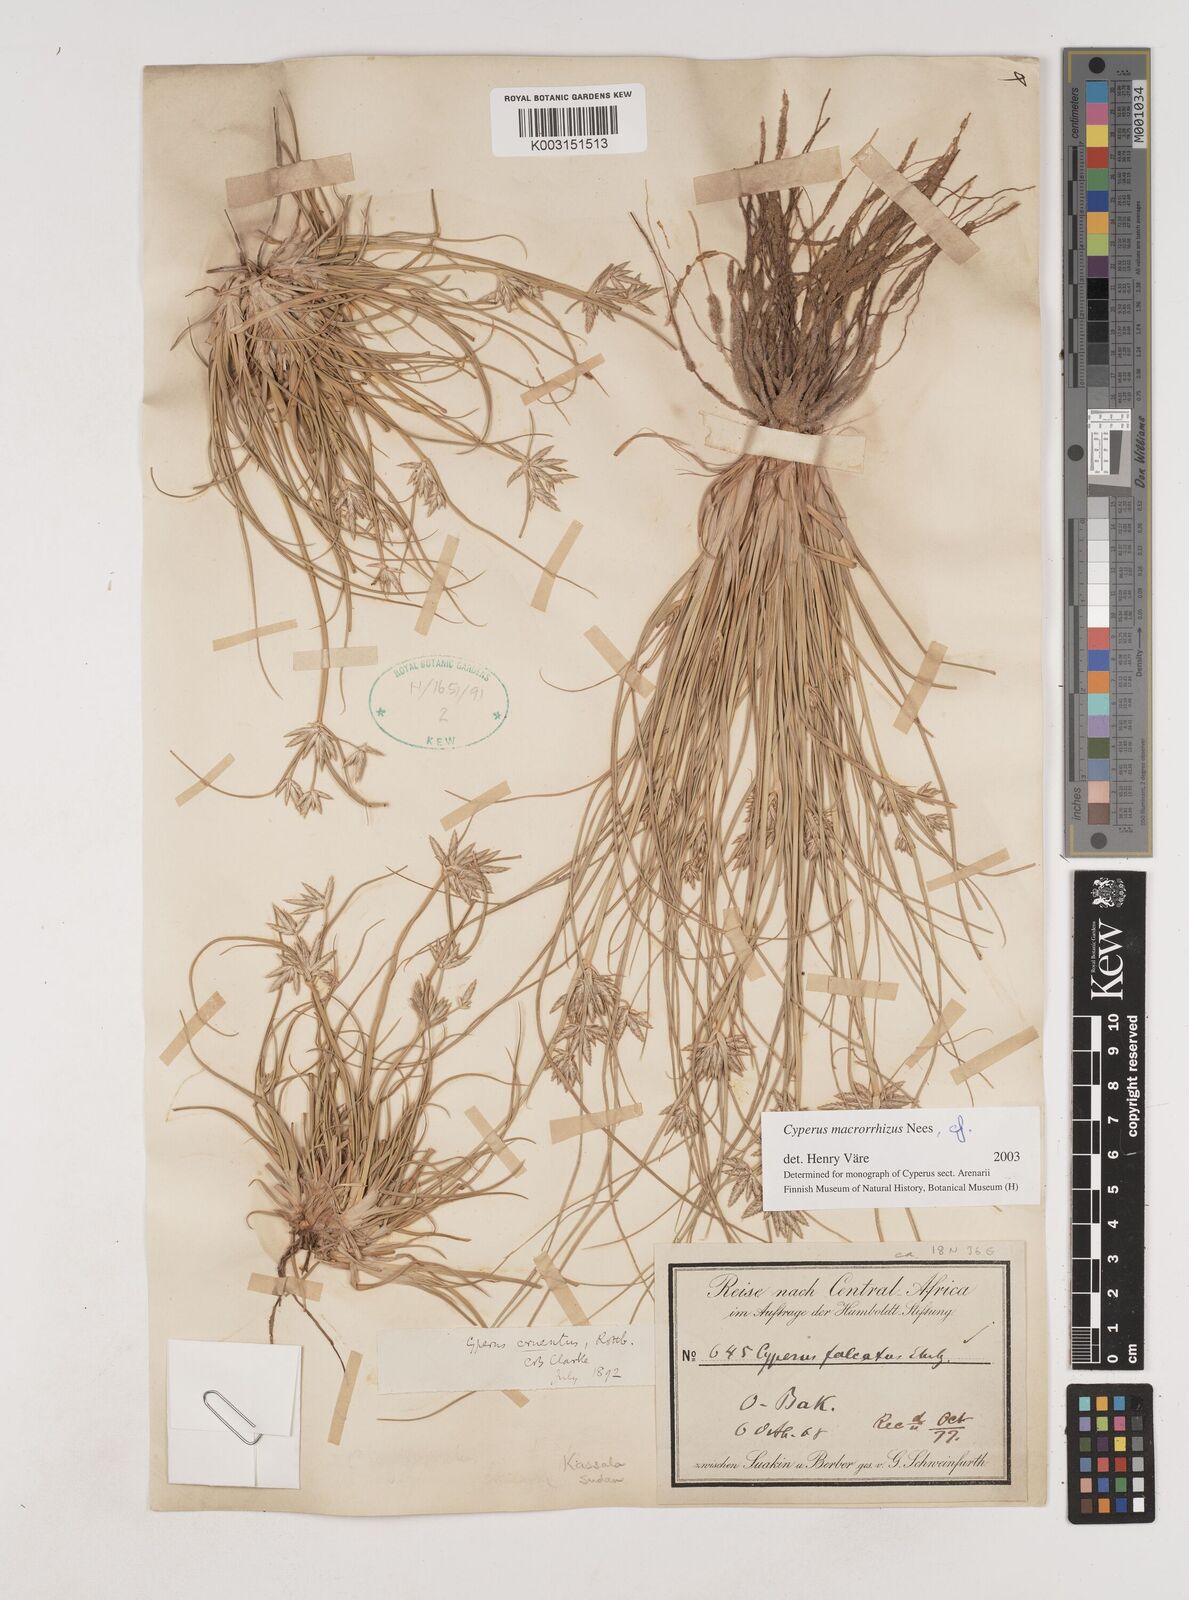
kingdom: Plantae
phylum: Tracheophyta
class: Liliopsida
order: Poales
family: Cyperaceae
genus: Cyperus
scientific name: Cyperus macrorrhizus
